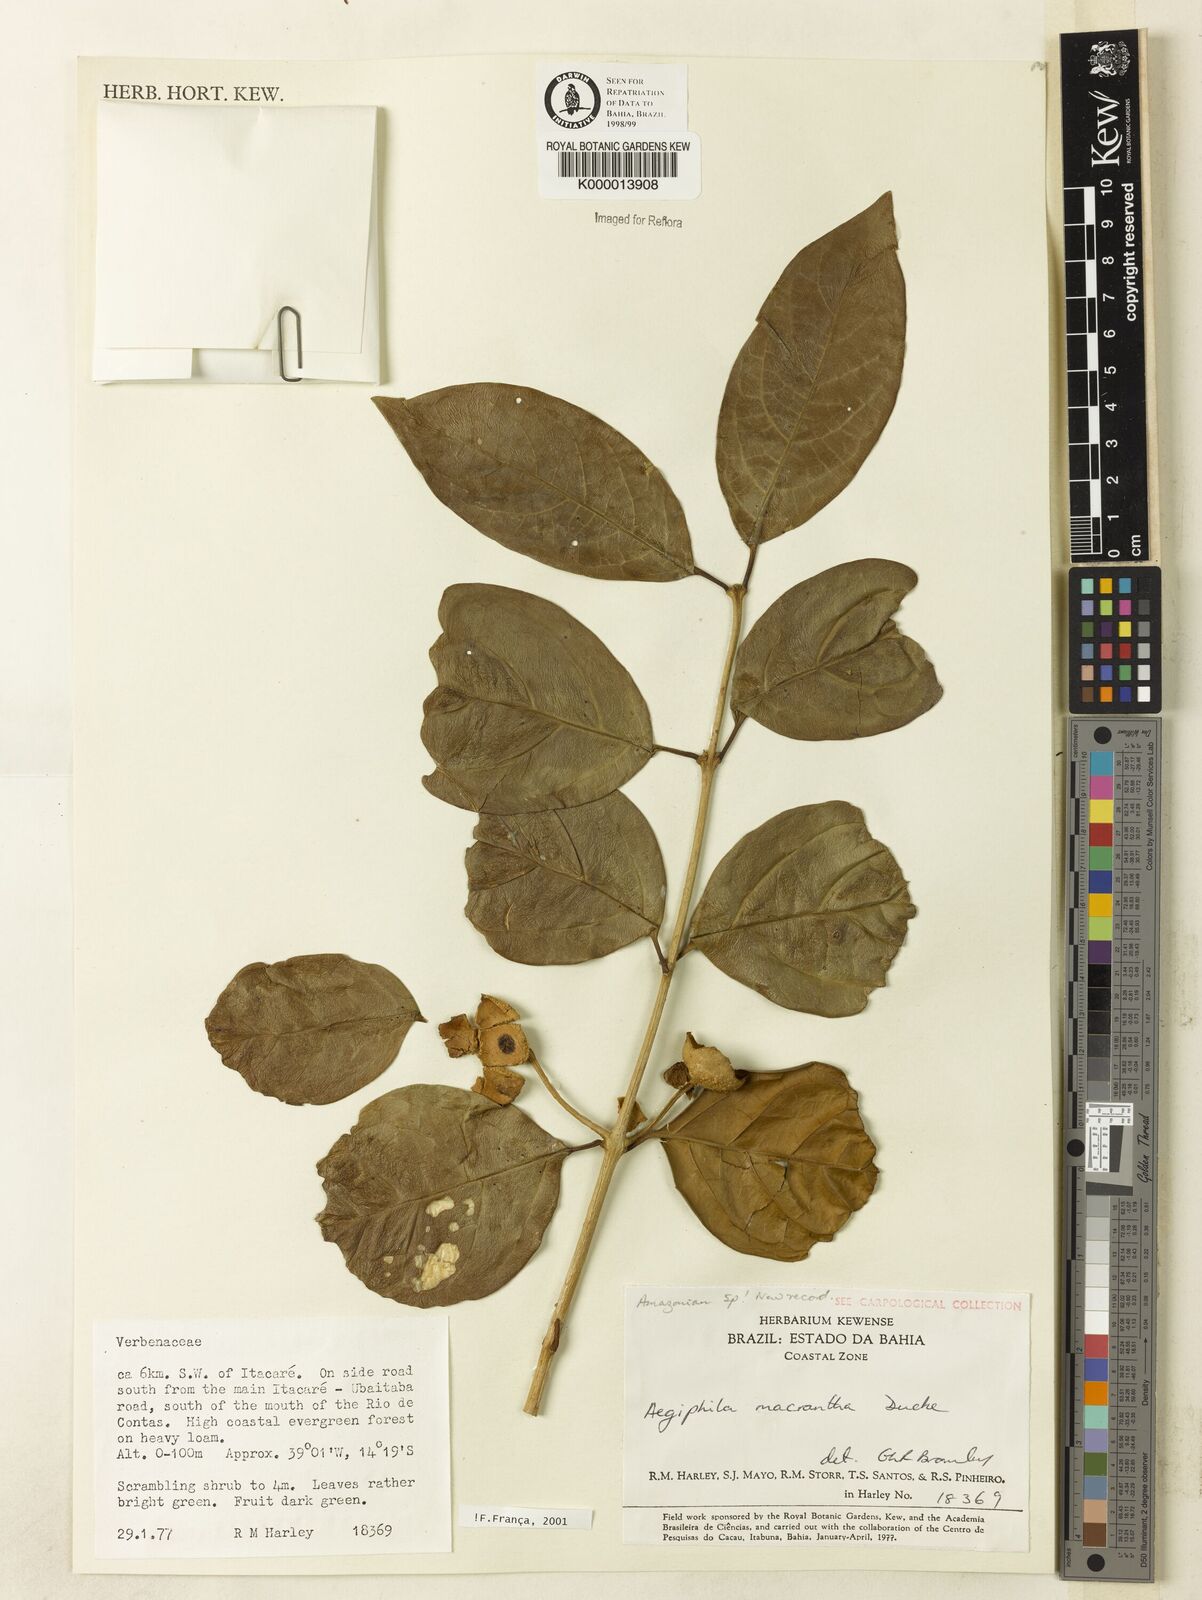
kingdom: Plantae
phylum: Tracheophyta
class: Magnoliopsida
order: Lamiales
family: Lamiaceae
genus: Aegiphila
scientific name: Aegiphila macrantha
